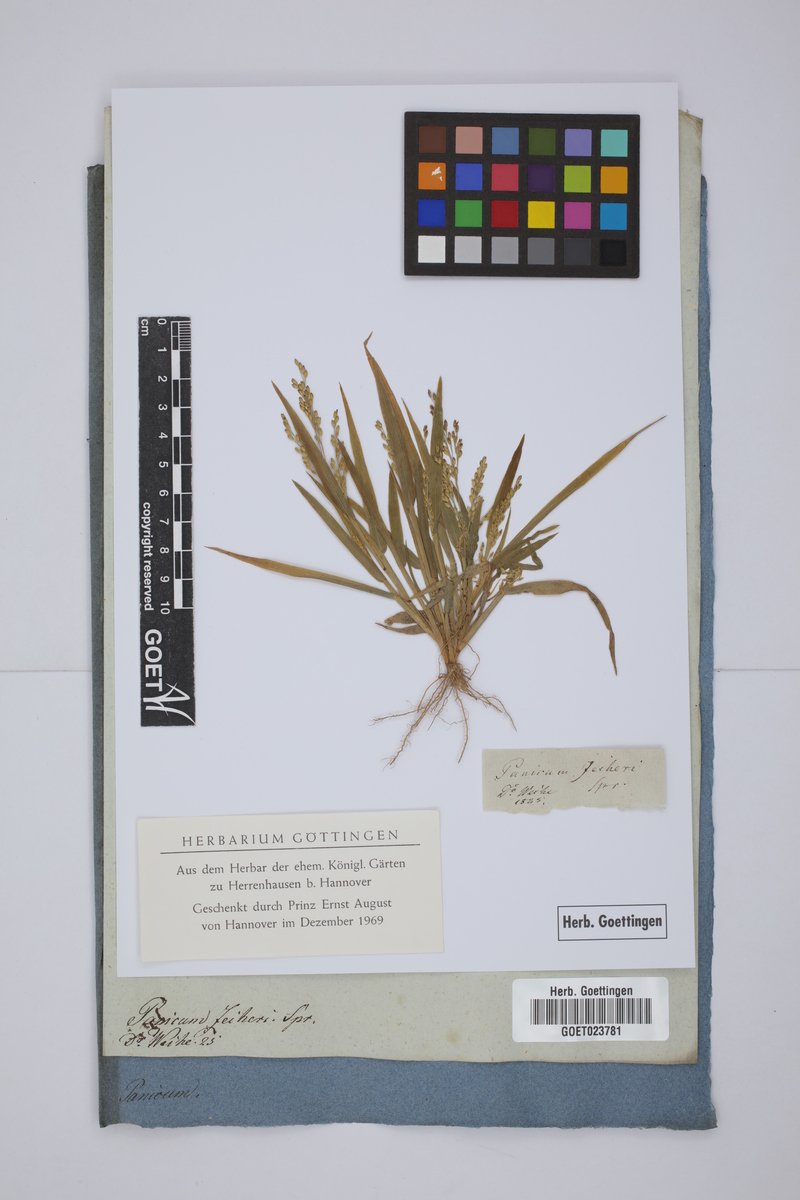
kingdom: Plantae
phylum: Tracheophyta
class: Liliopsida
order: Poales
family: Poaceae
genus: Digitaria
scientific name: Digitaria velutina
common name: Long-plume finger grass
